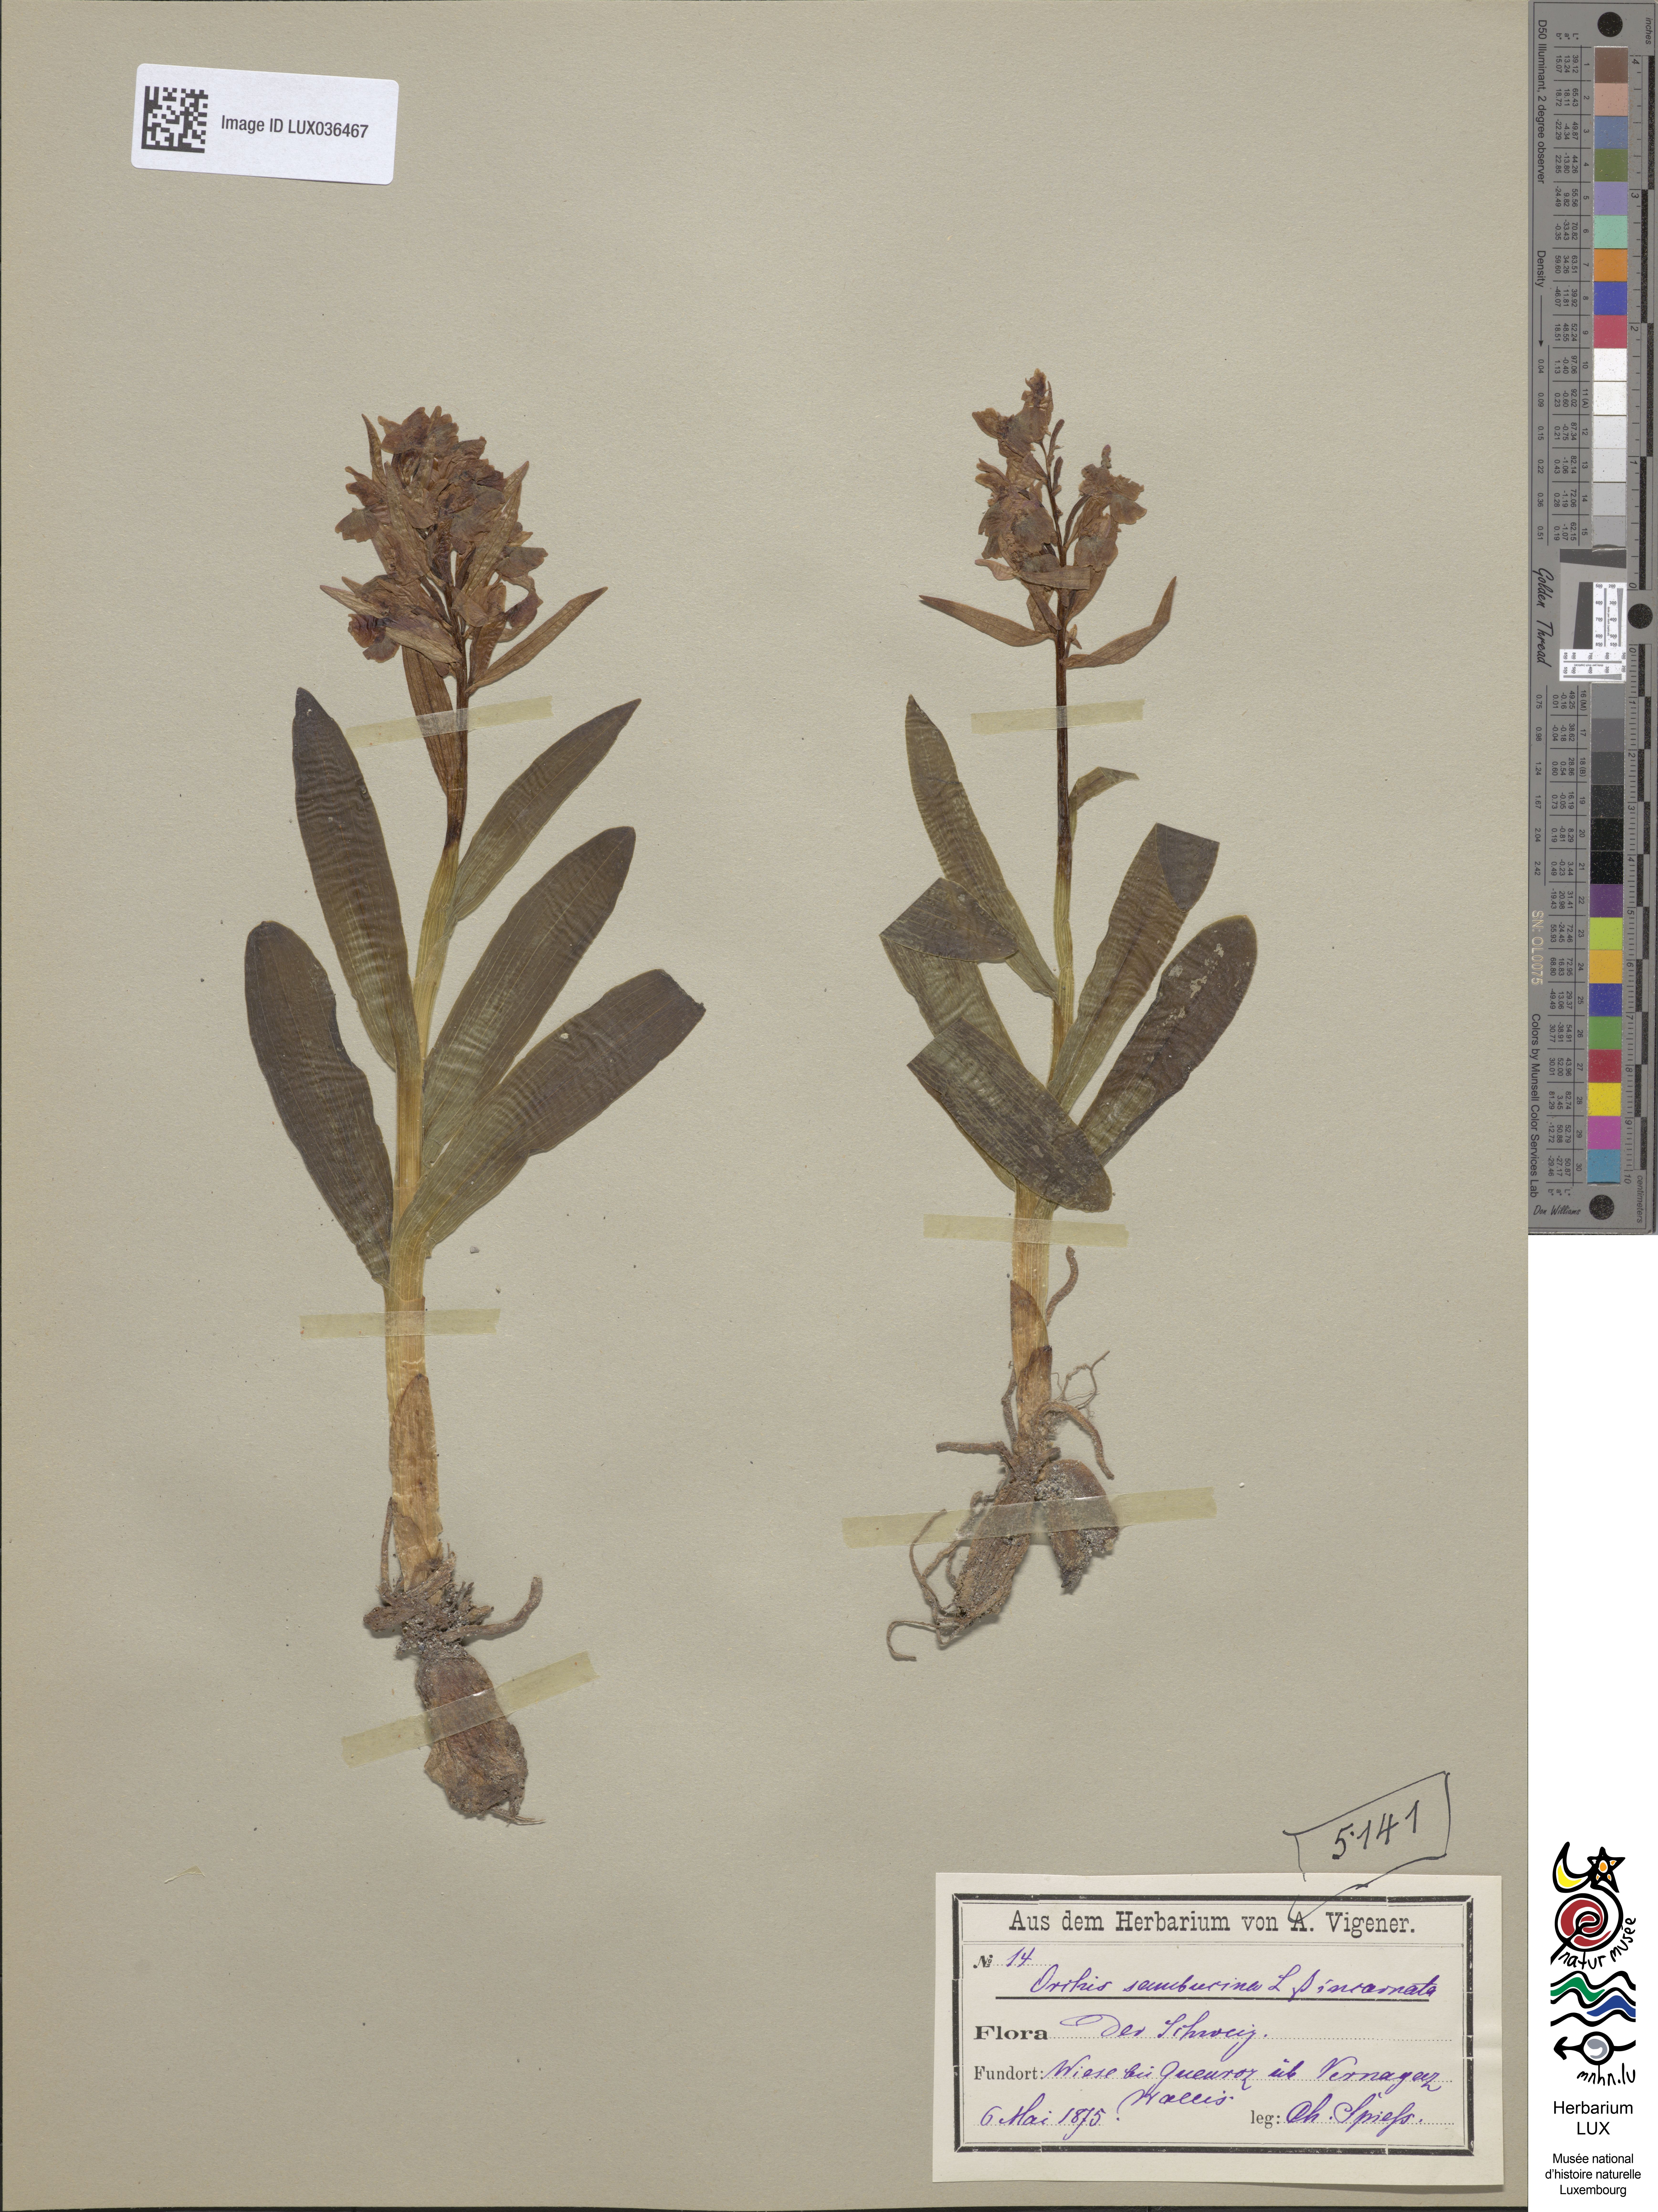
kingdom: Plantae
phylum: Tracheophyta
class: Liliopsida
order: Asparagales
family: Orchidaceae
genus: Dactylorhiza
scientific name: Dactylorhiza sambucina
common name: Elder-flowered orchid
